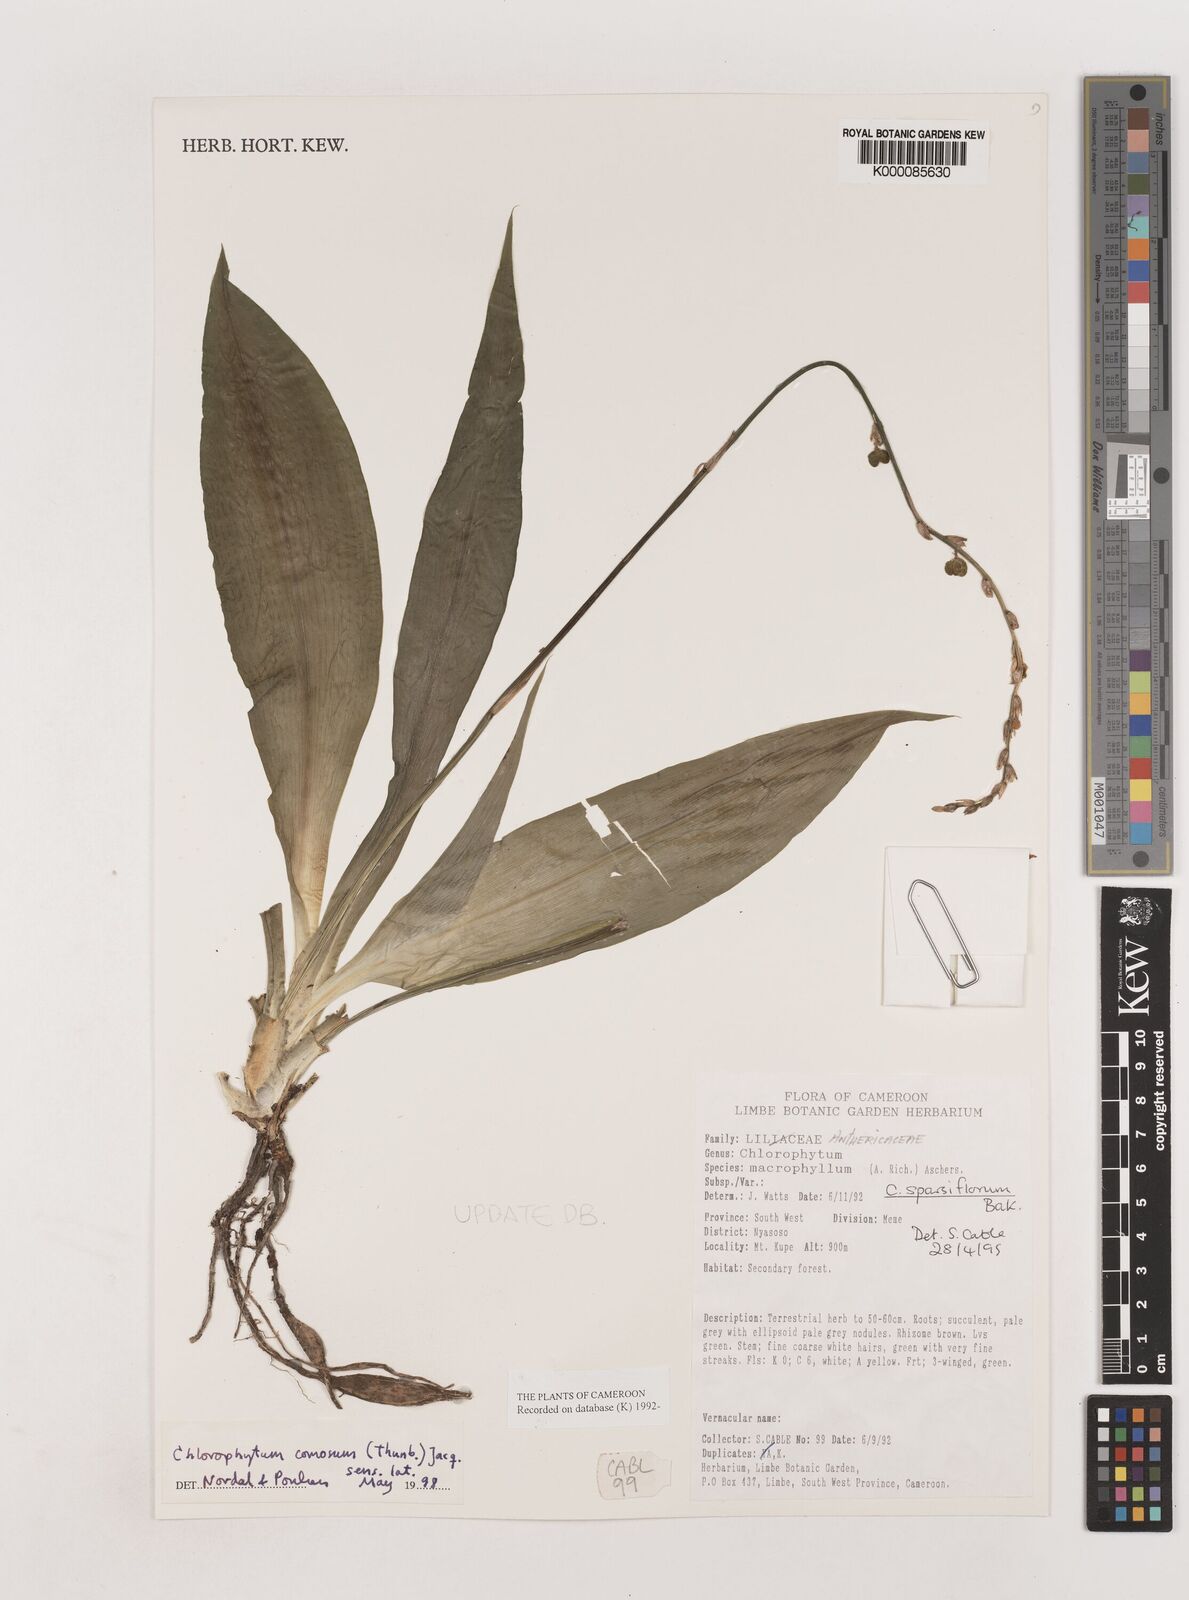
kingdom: Plantae
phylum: Tracheophyta
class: Liliopsida
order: Asparagales
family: Asparagaceae
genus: Chlorophytum
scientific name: Chlorophytum sparsiflorum
